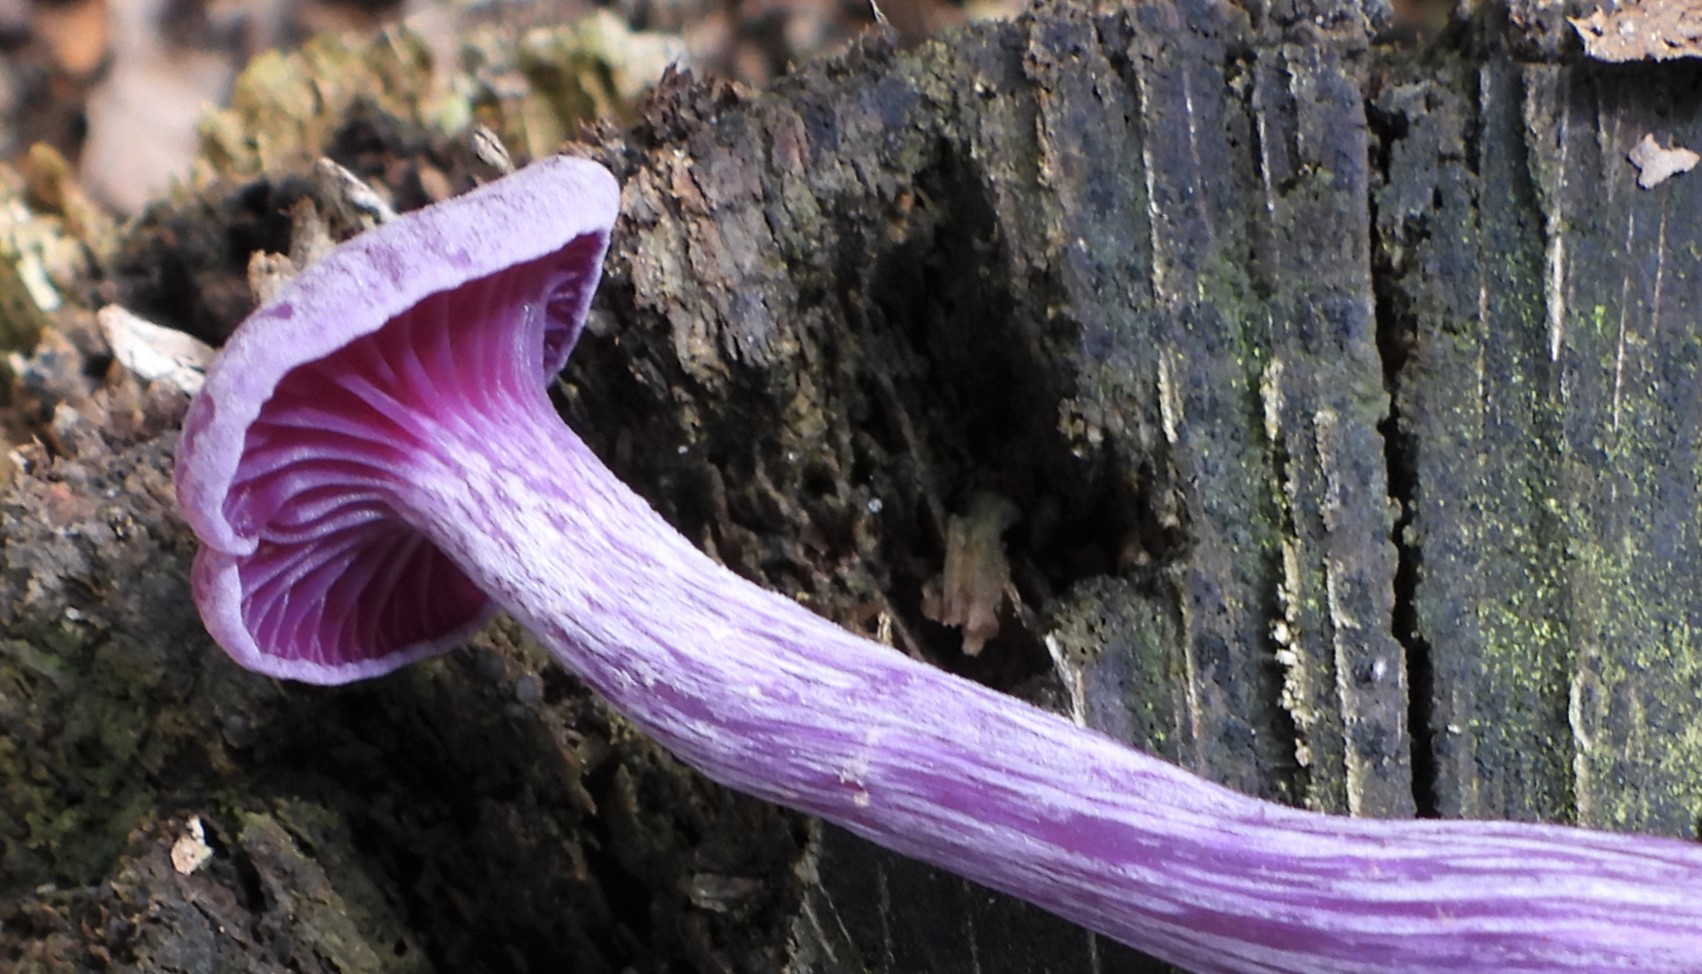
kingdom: Fungi
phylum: Basidiomycota
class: Agaricomycetes
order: Agaricales
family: Hydnangiaceae
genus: Laccaria
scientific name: Laccaria amethystina
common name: violet ametysthat
